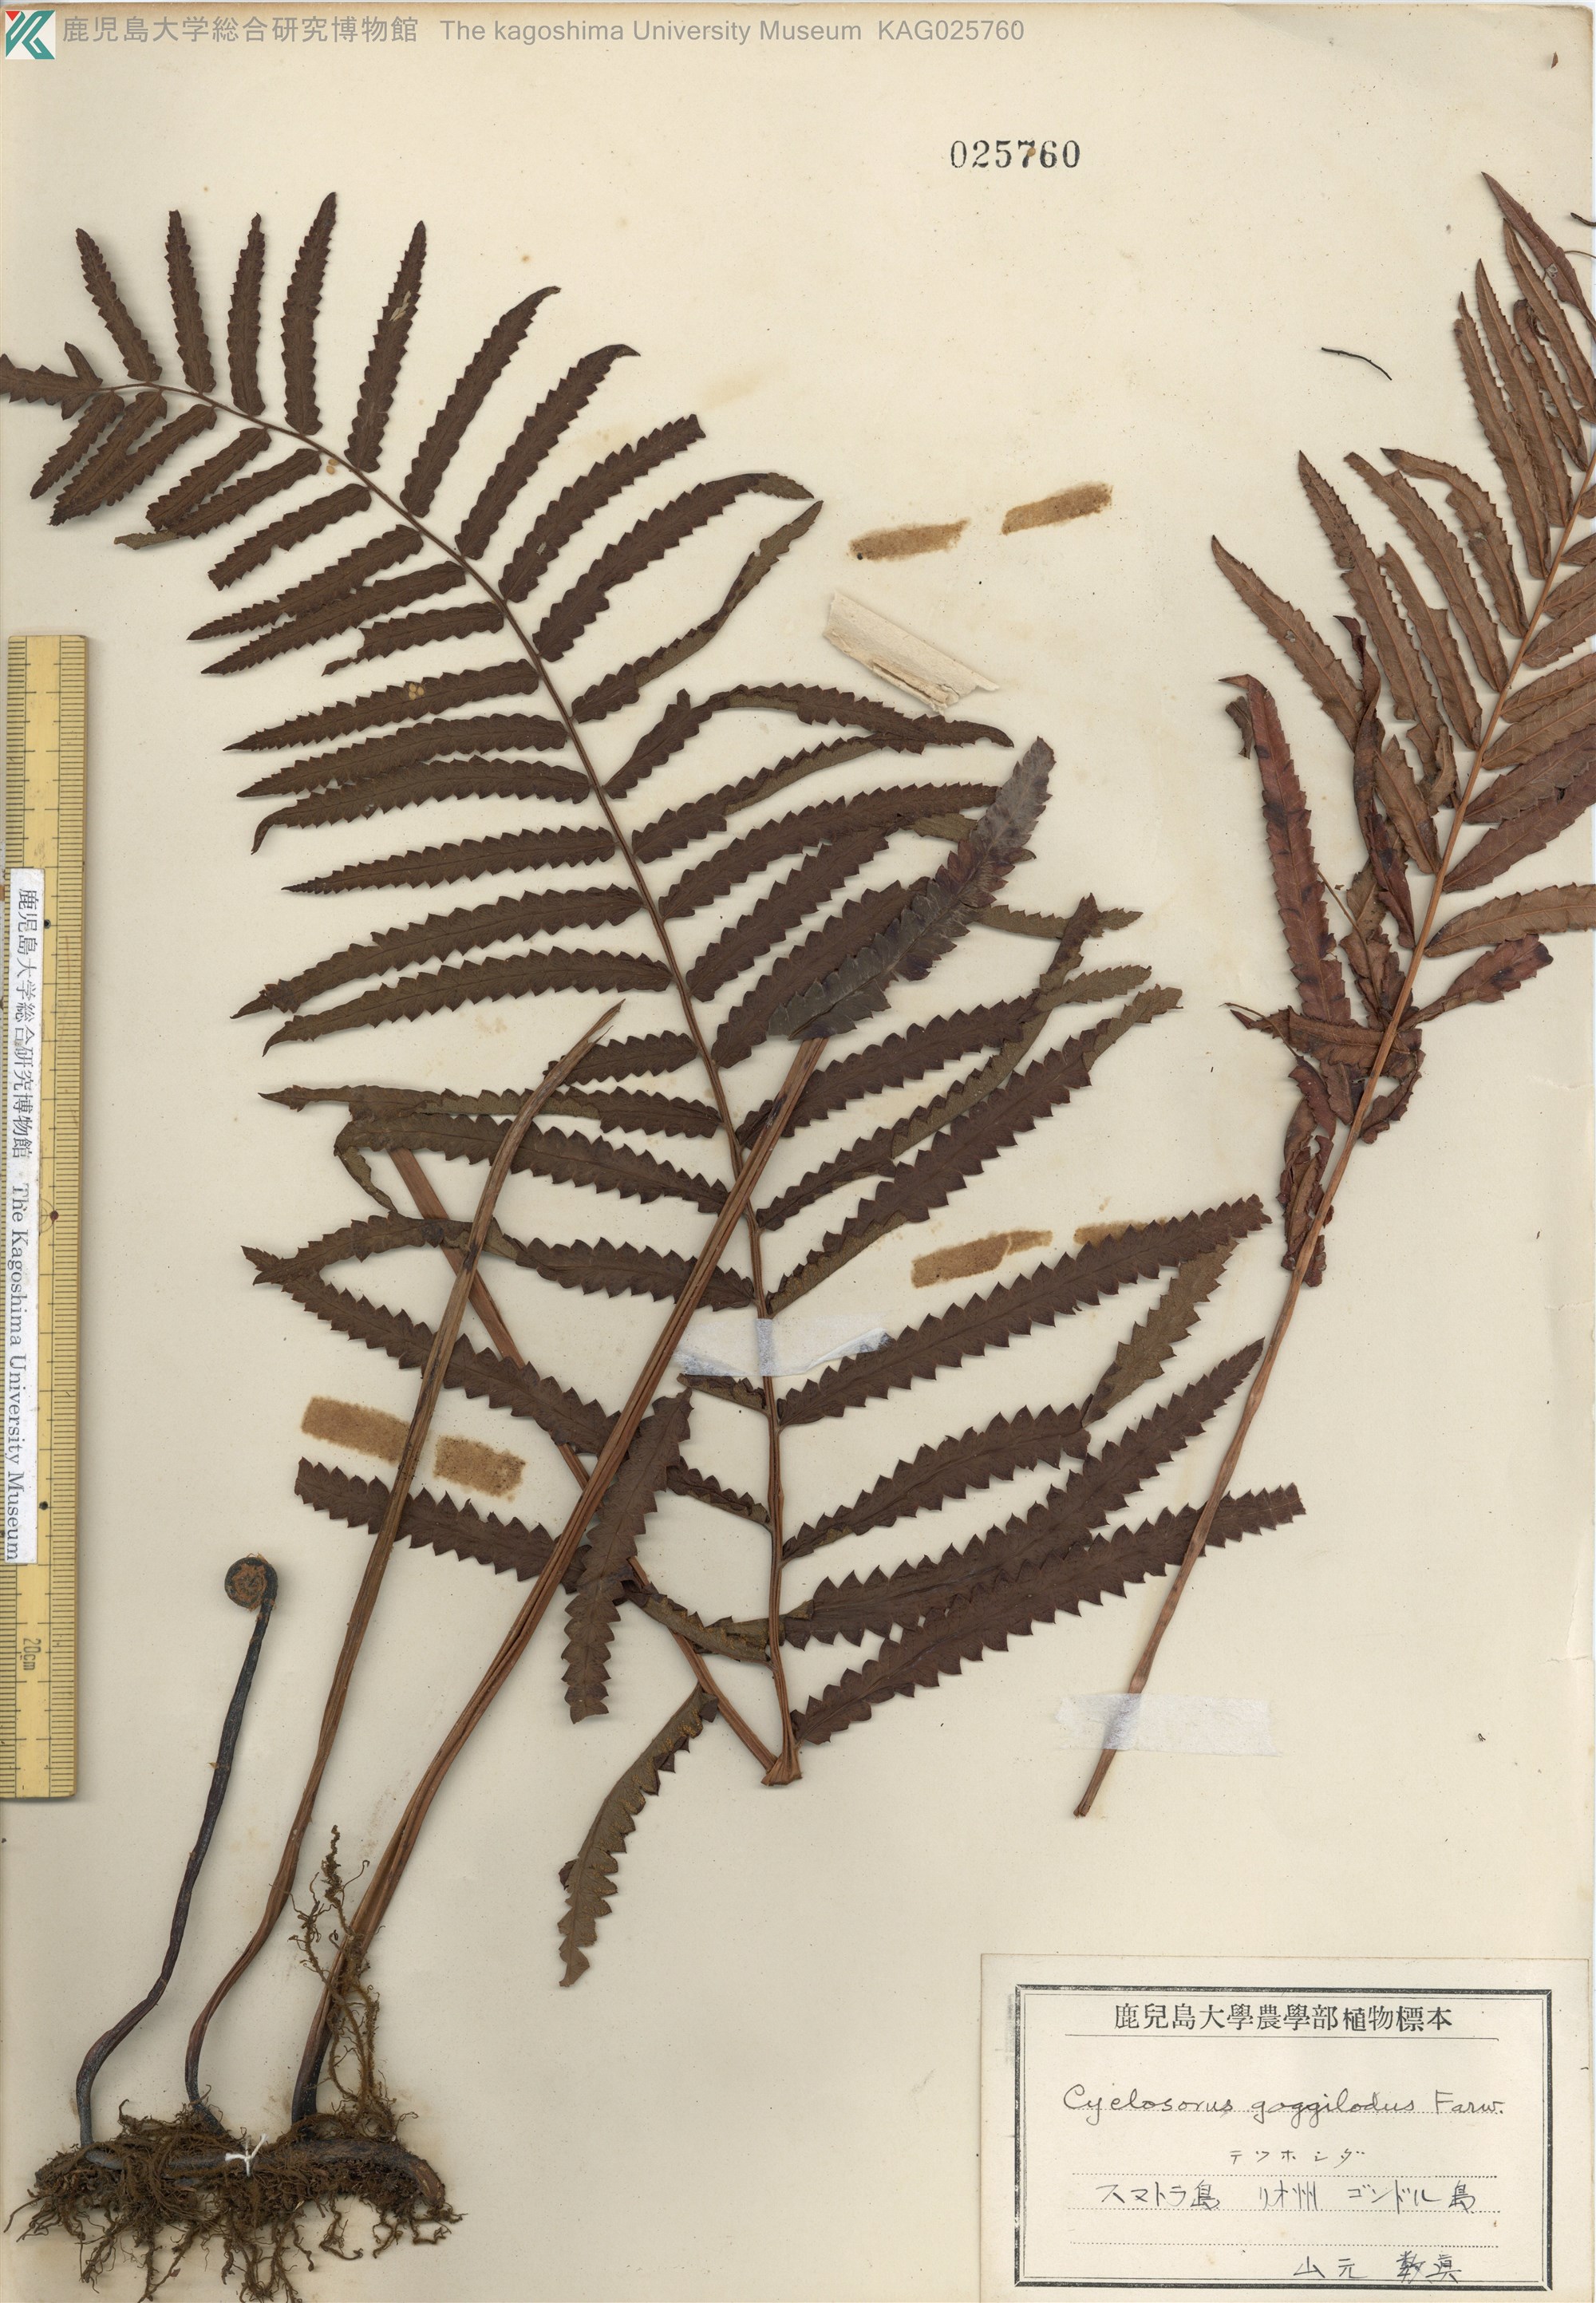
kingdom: Plantae
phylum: Tracheophyta
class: Polypodiopsida
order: Polypodiales
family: Thelypteridaceae
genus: Cyclosorus
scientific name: Cyclosorus interruptus
